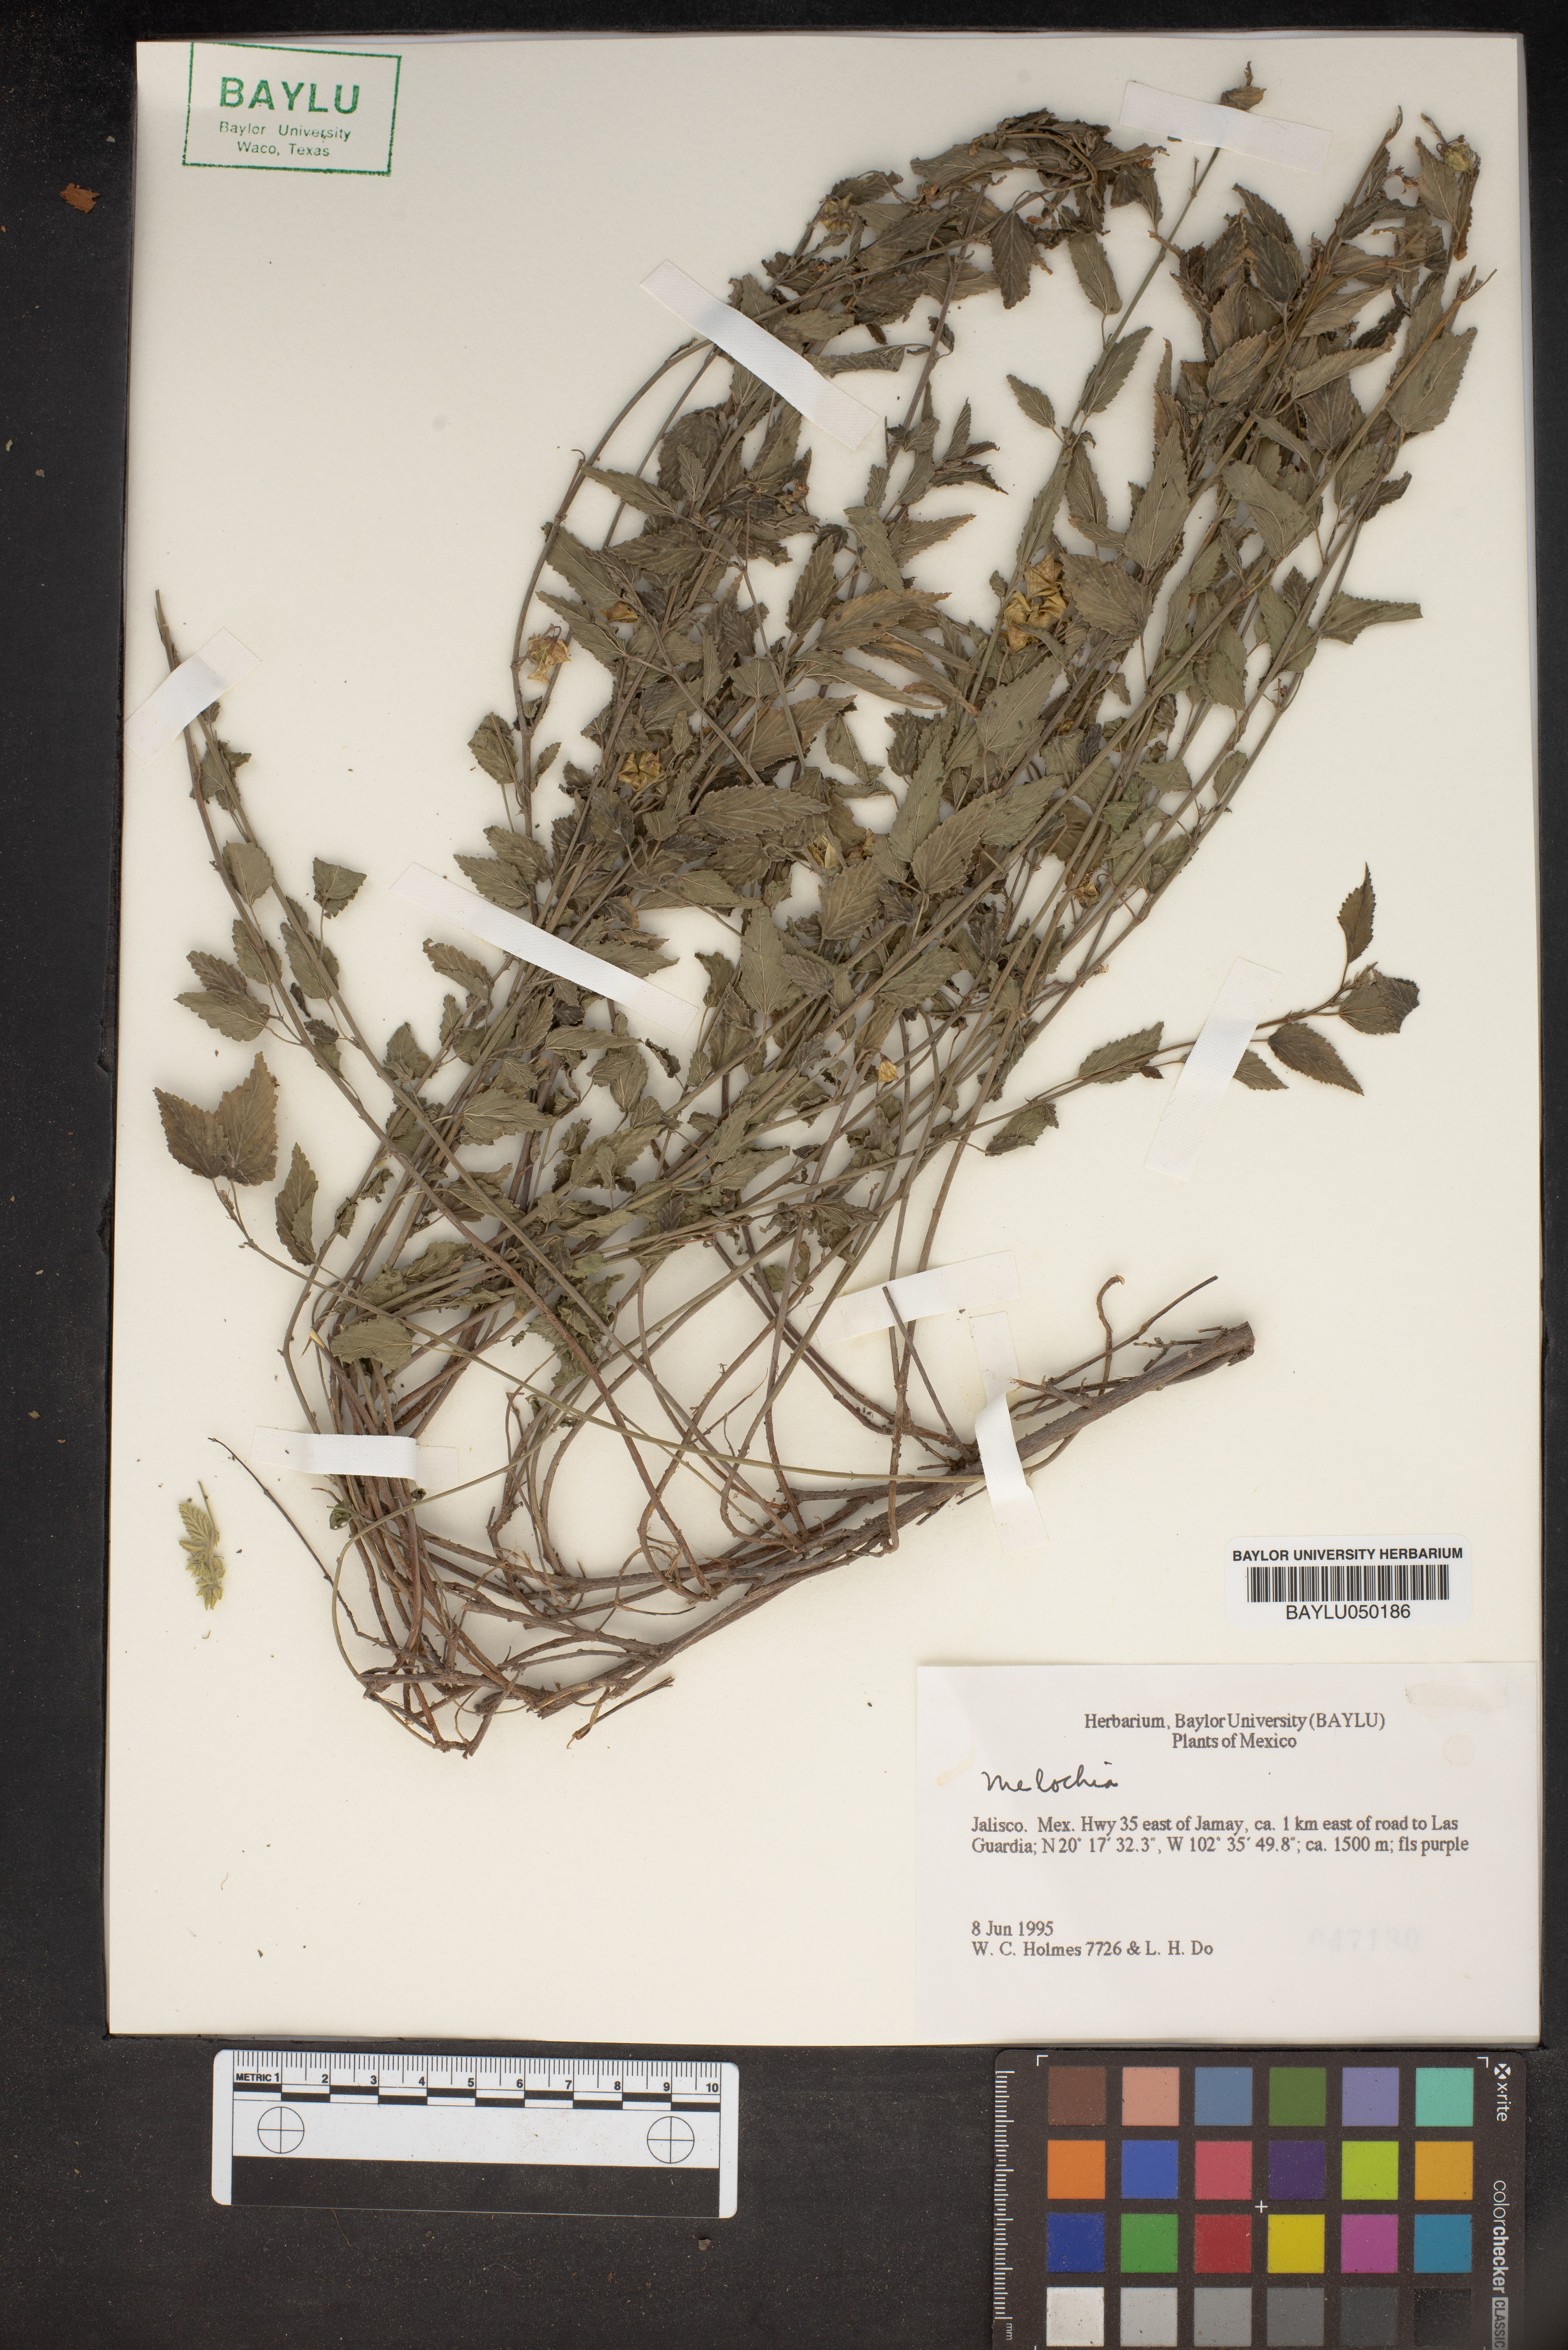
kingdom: Plantae
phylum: Tracheophyta
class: Magnoliopsida
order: Malvales
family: Malvaceae
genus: Melochia
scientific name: Melochia
